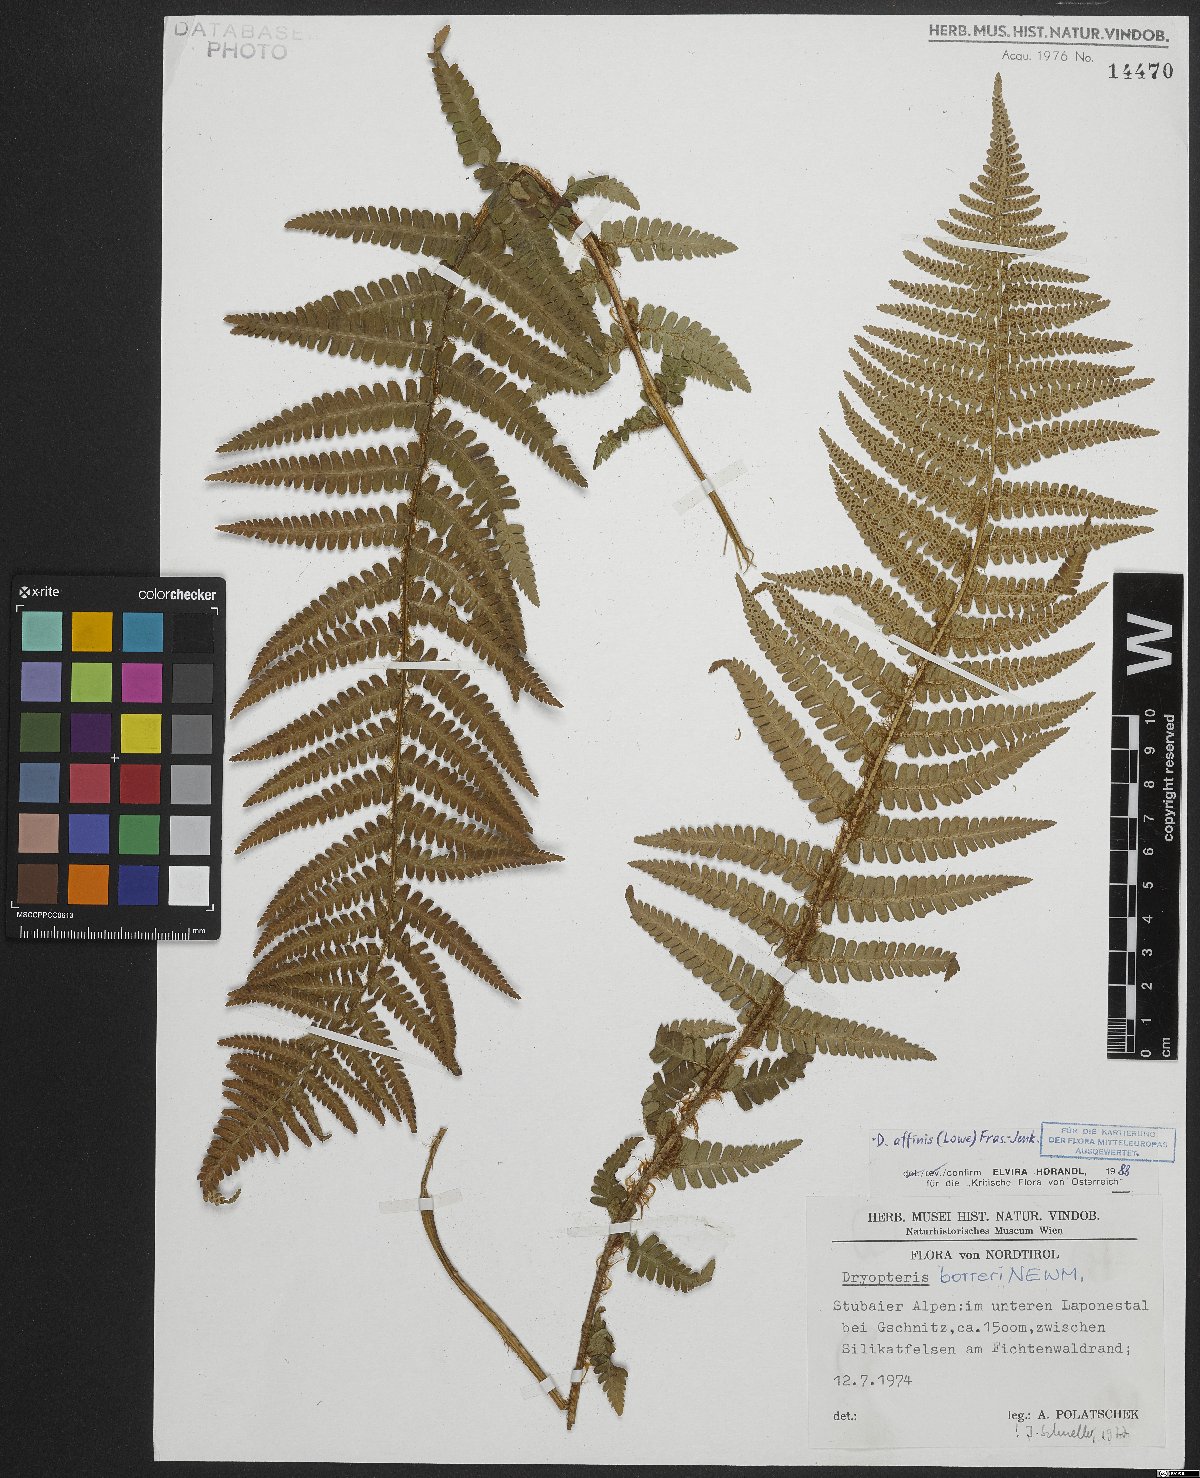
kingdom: Plantae
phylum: Tracheophyta
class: Polypodiopsida
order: Polypodiales
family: Dryopteridaceae
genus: Dryopteris
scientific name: Dryopteris cambrensis
